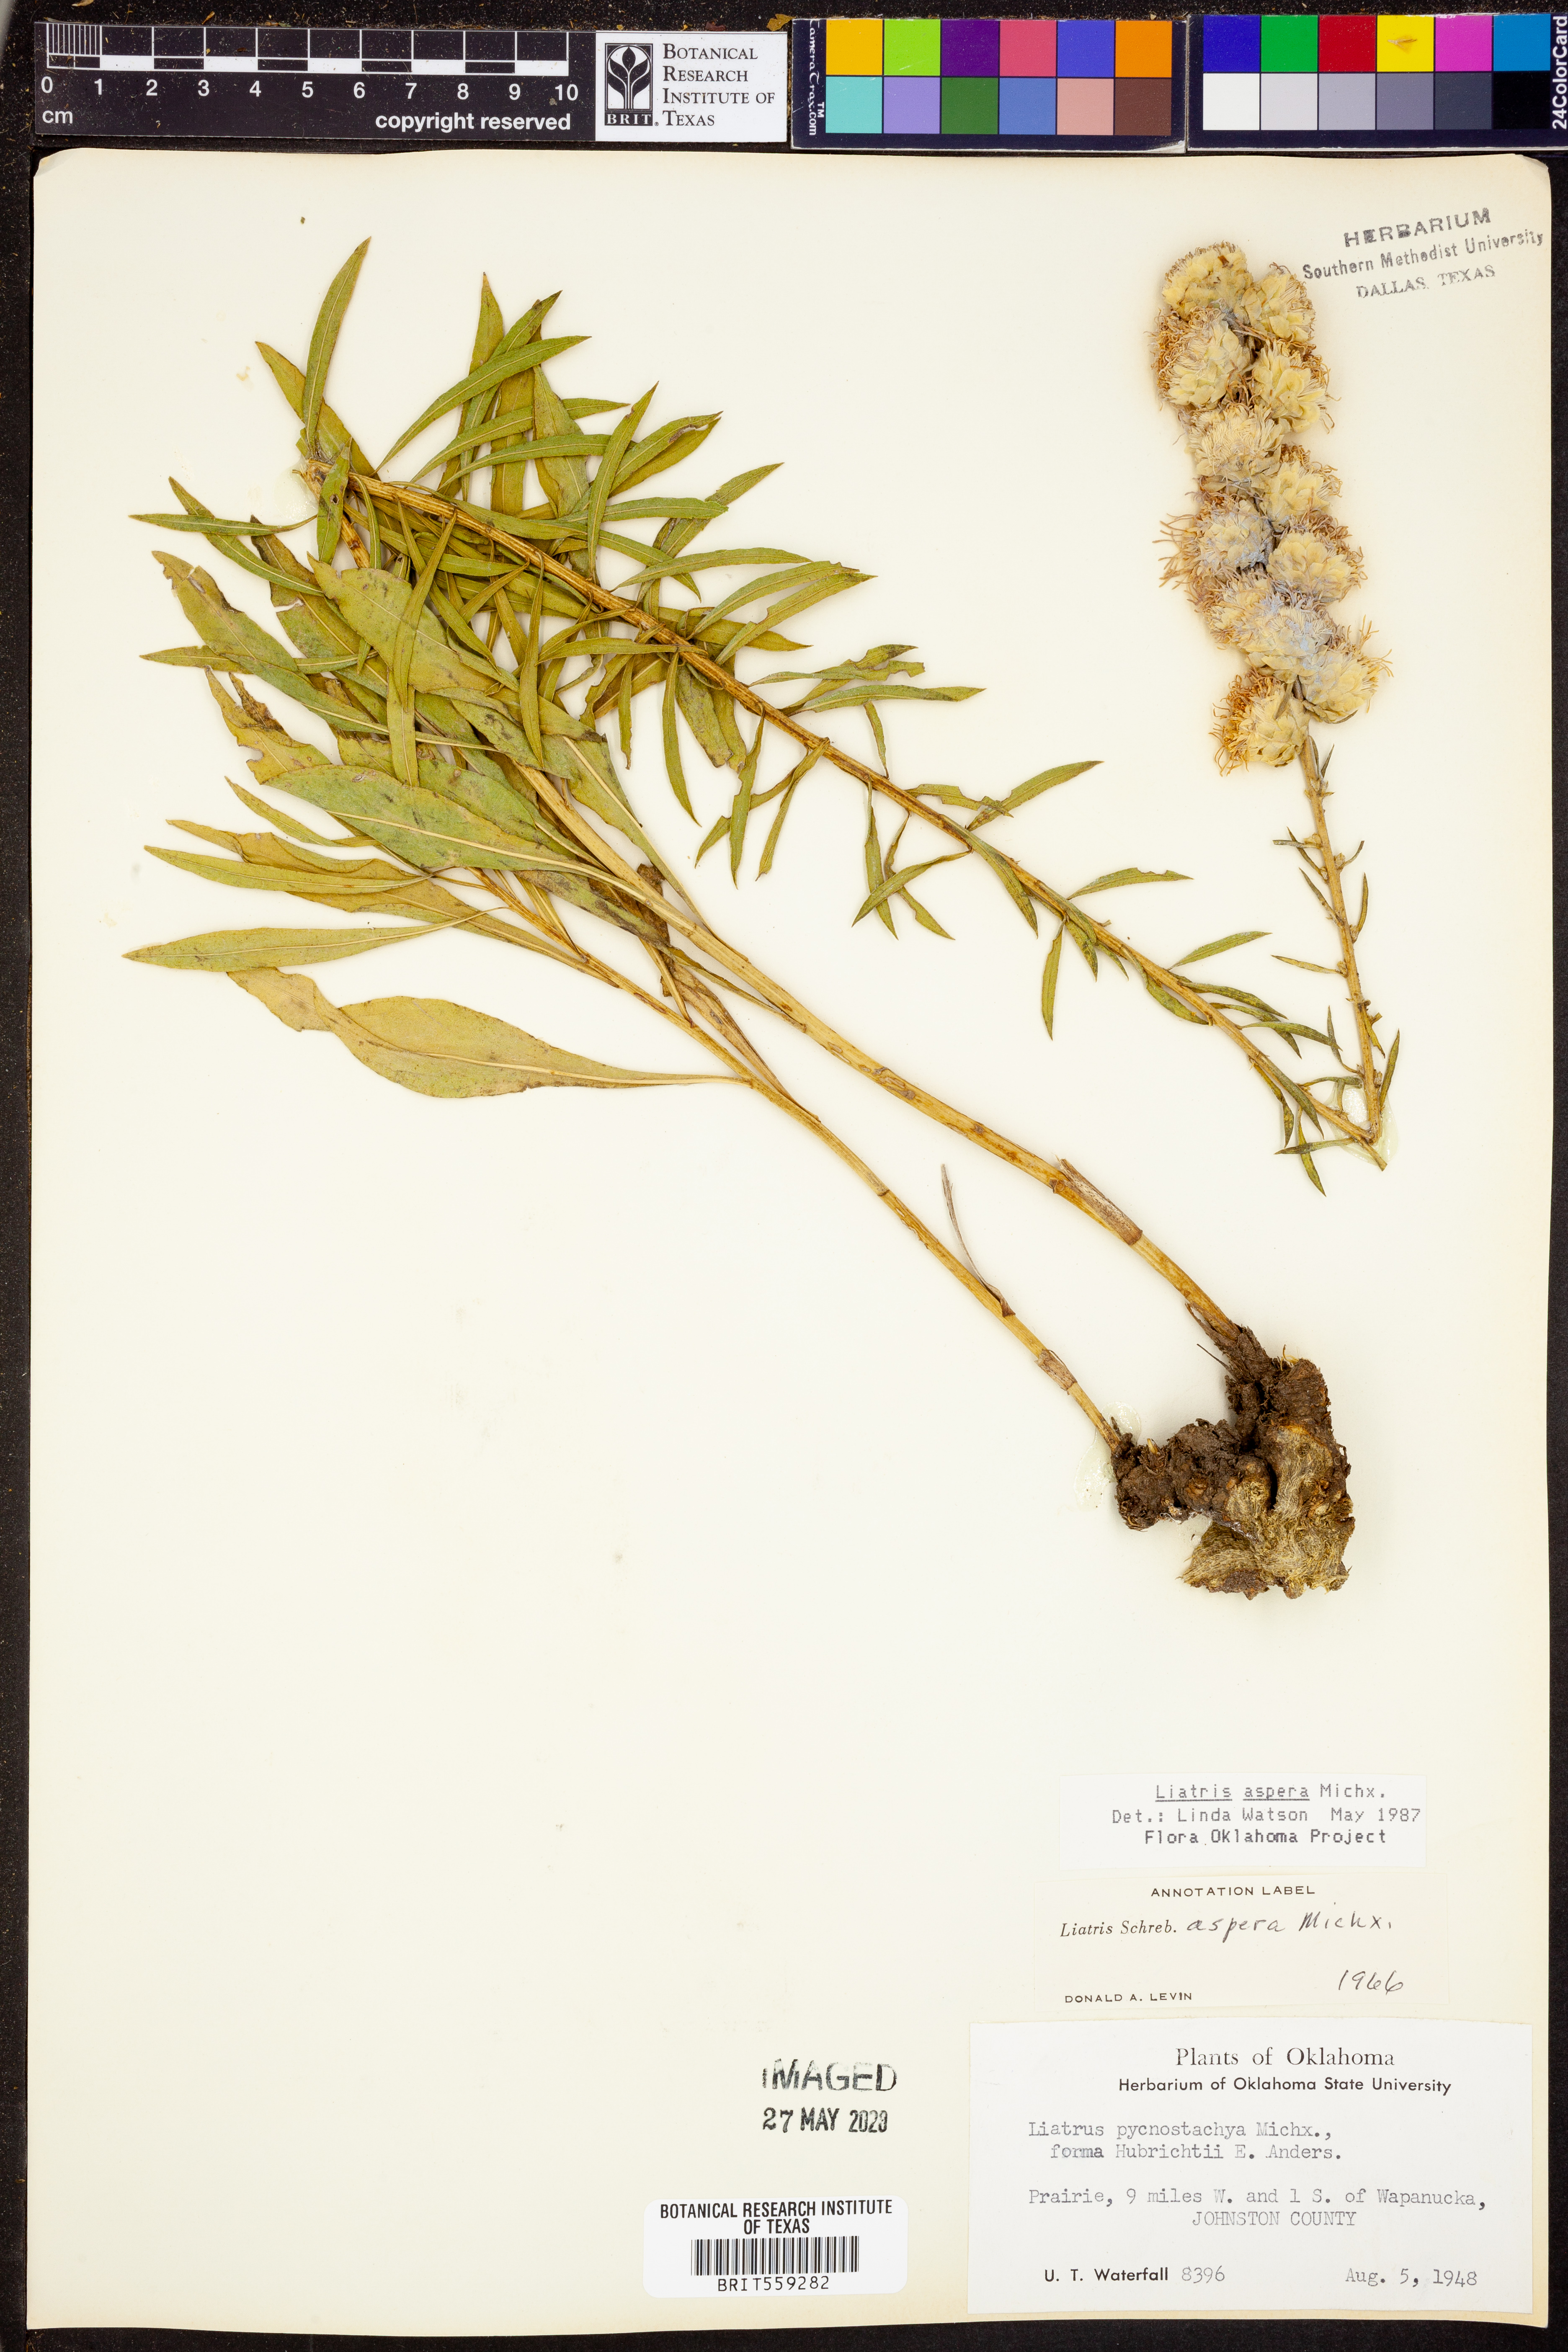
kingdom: Plantae
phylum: Tracheophyta
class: Magnoliopsida
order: Asterales
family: Asteraceae
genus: Liatris
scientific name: Liatris aspera
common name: Lacerate blazing-star
